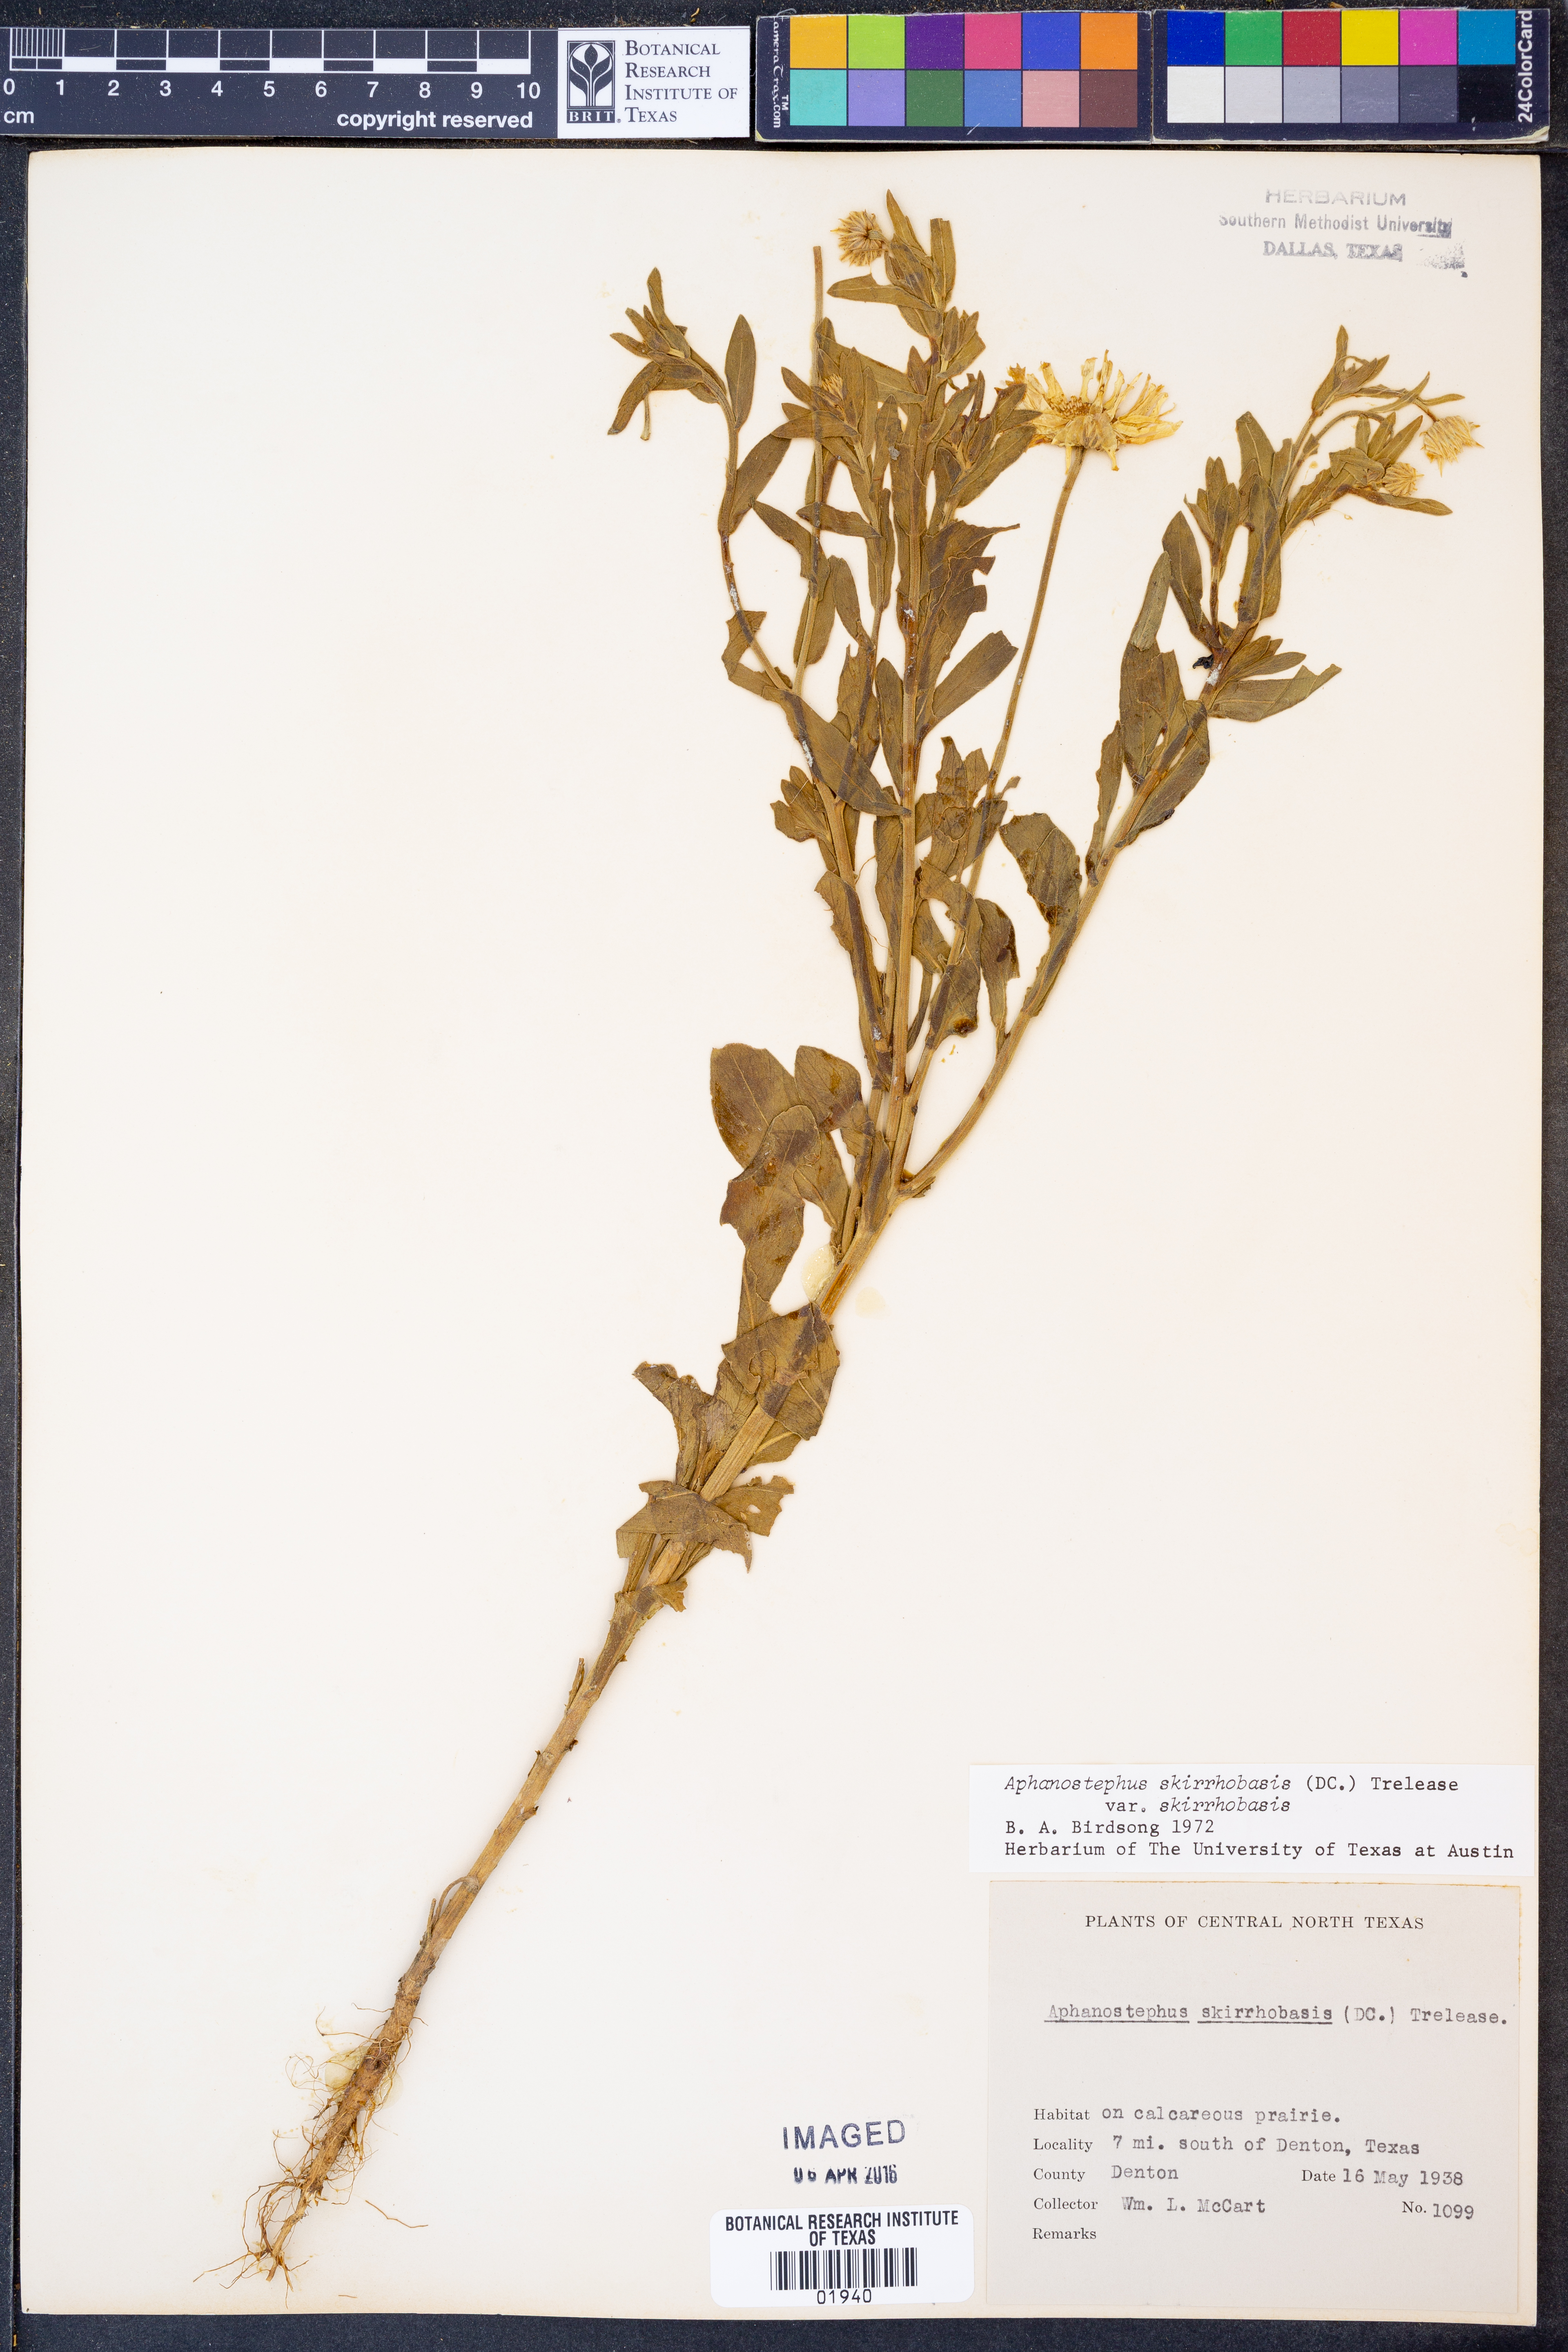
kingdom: Plantae
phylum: Tracheophyta
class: Magnoliopsida
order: Asterales
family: Asteraceae
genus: Aphanostephus
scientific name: Aphanostephus skirrhobasis
